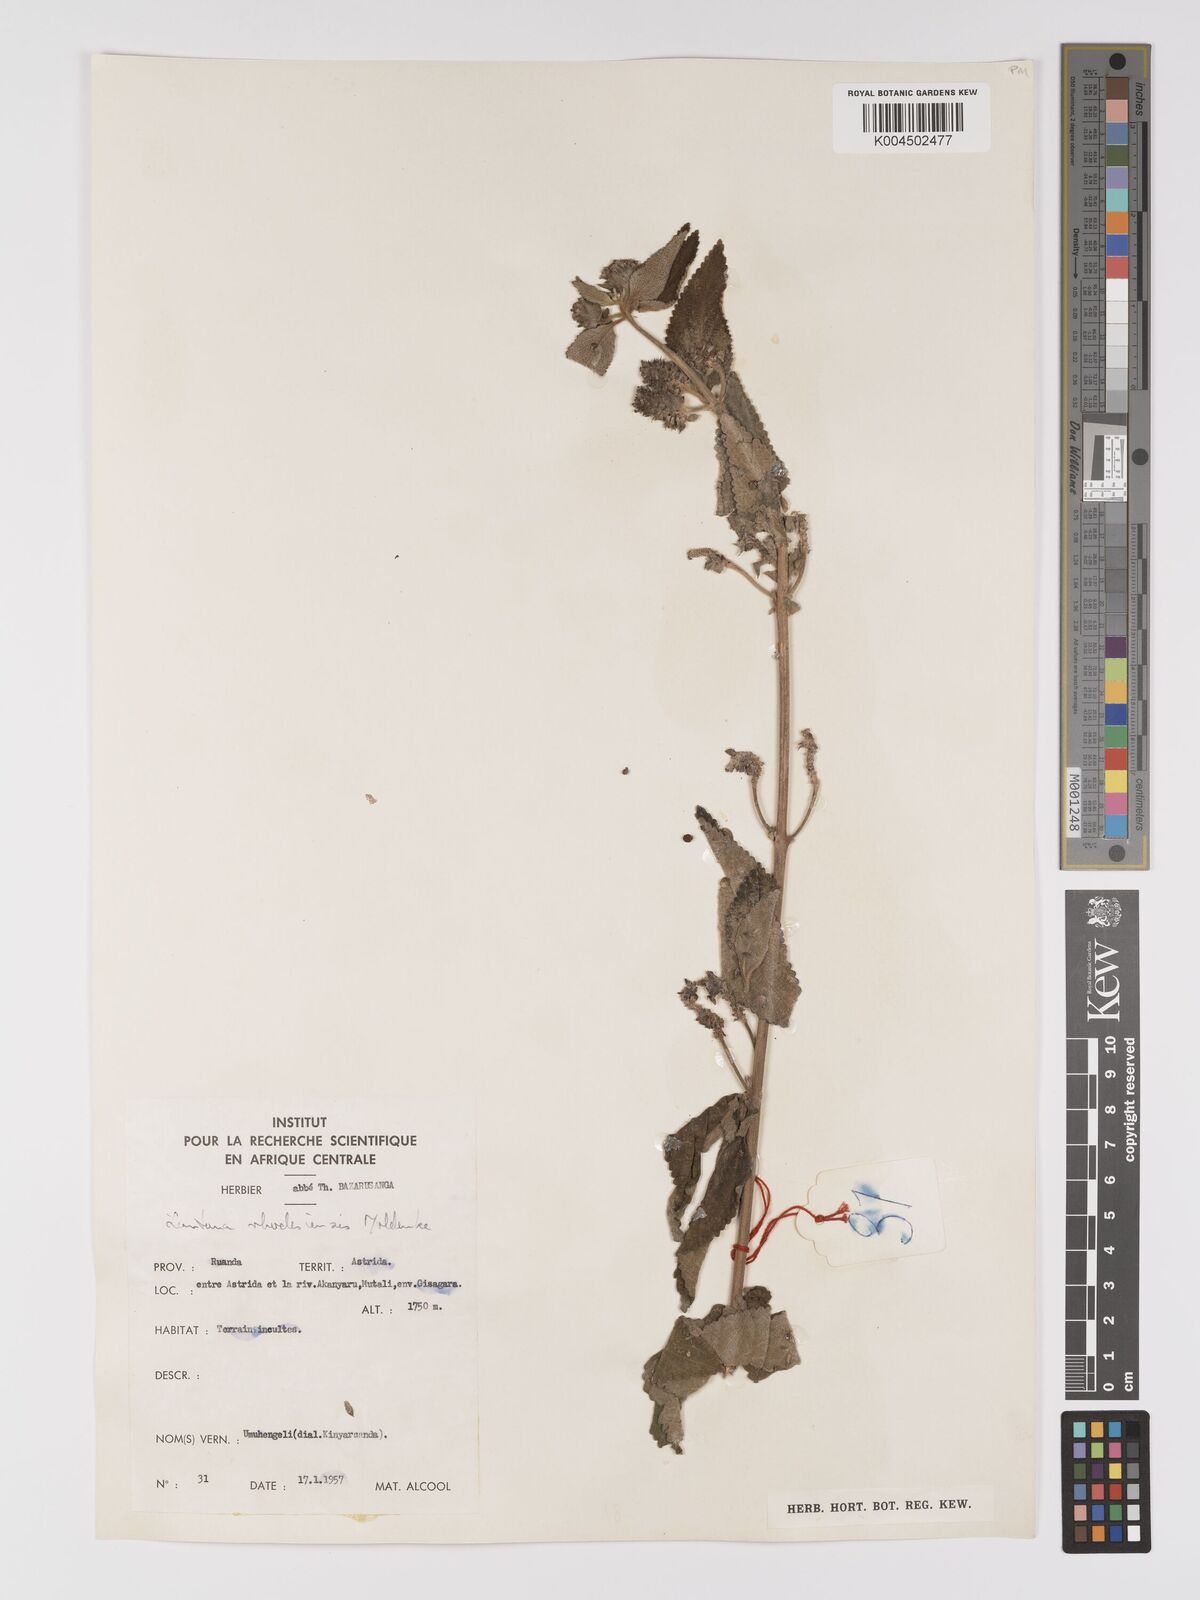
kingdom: Plantae
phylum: Tracheophyta
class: Magnoliopsida
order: Lamiales
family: Verbenaceae
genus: Lantana
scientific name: Lantana ukambensis
